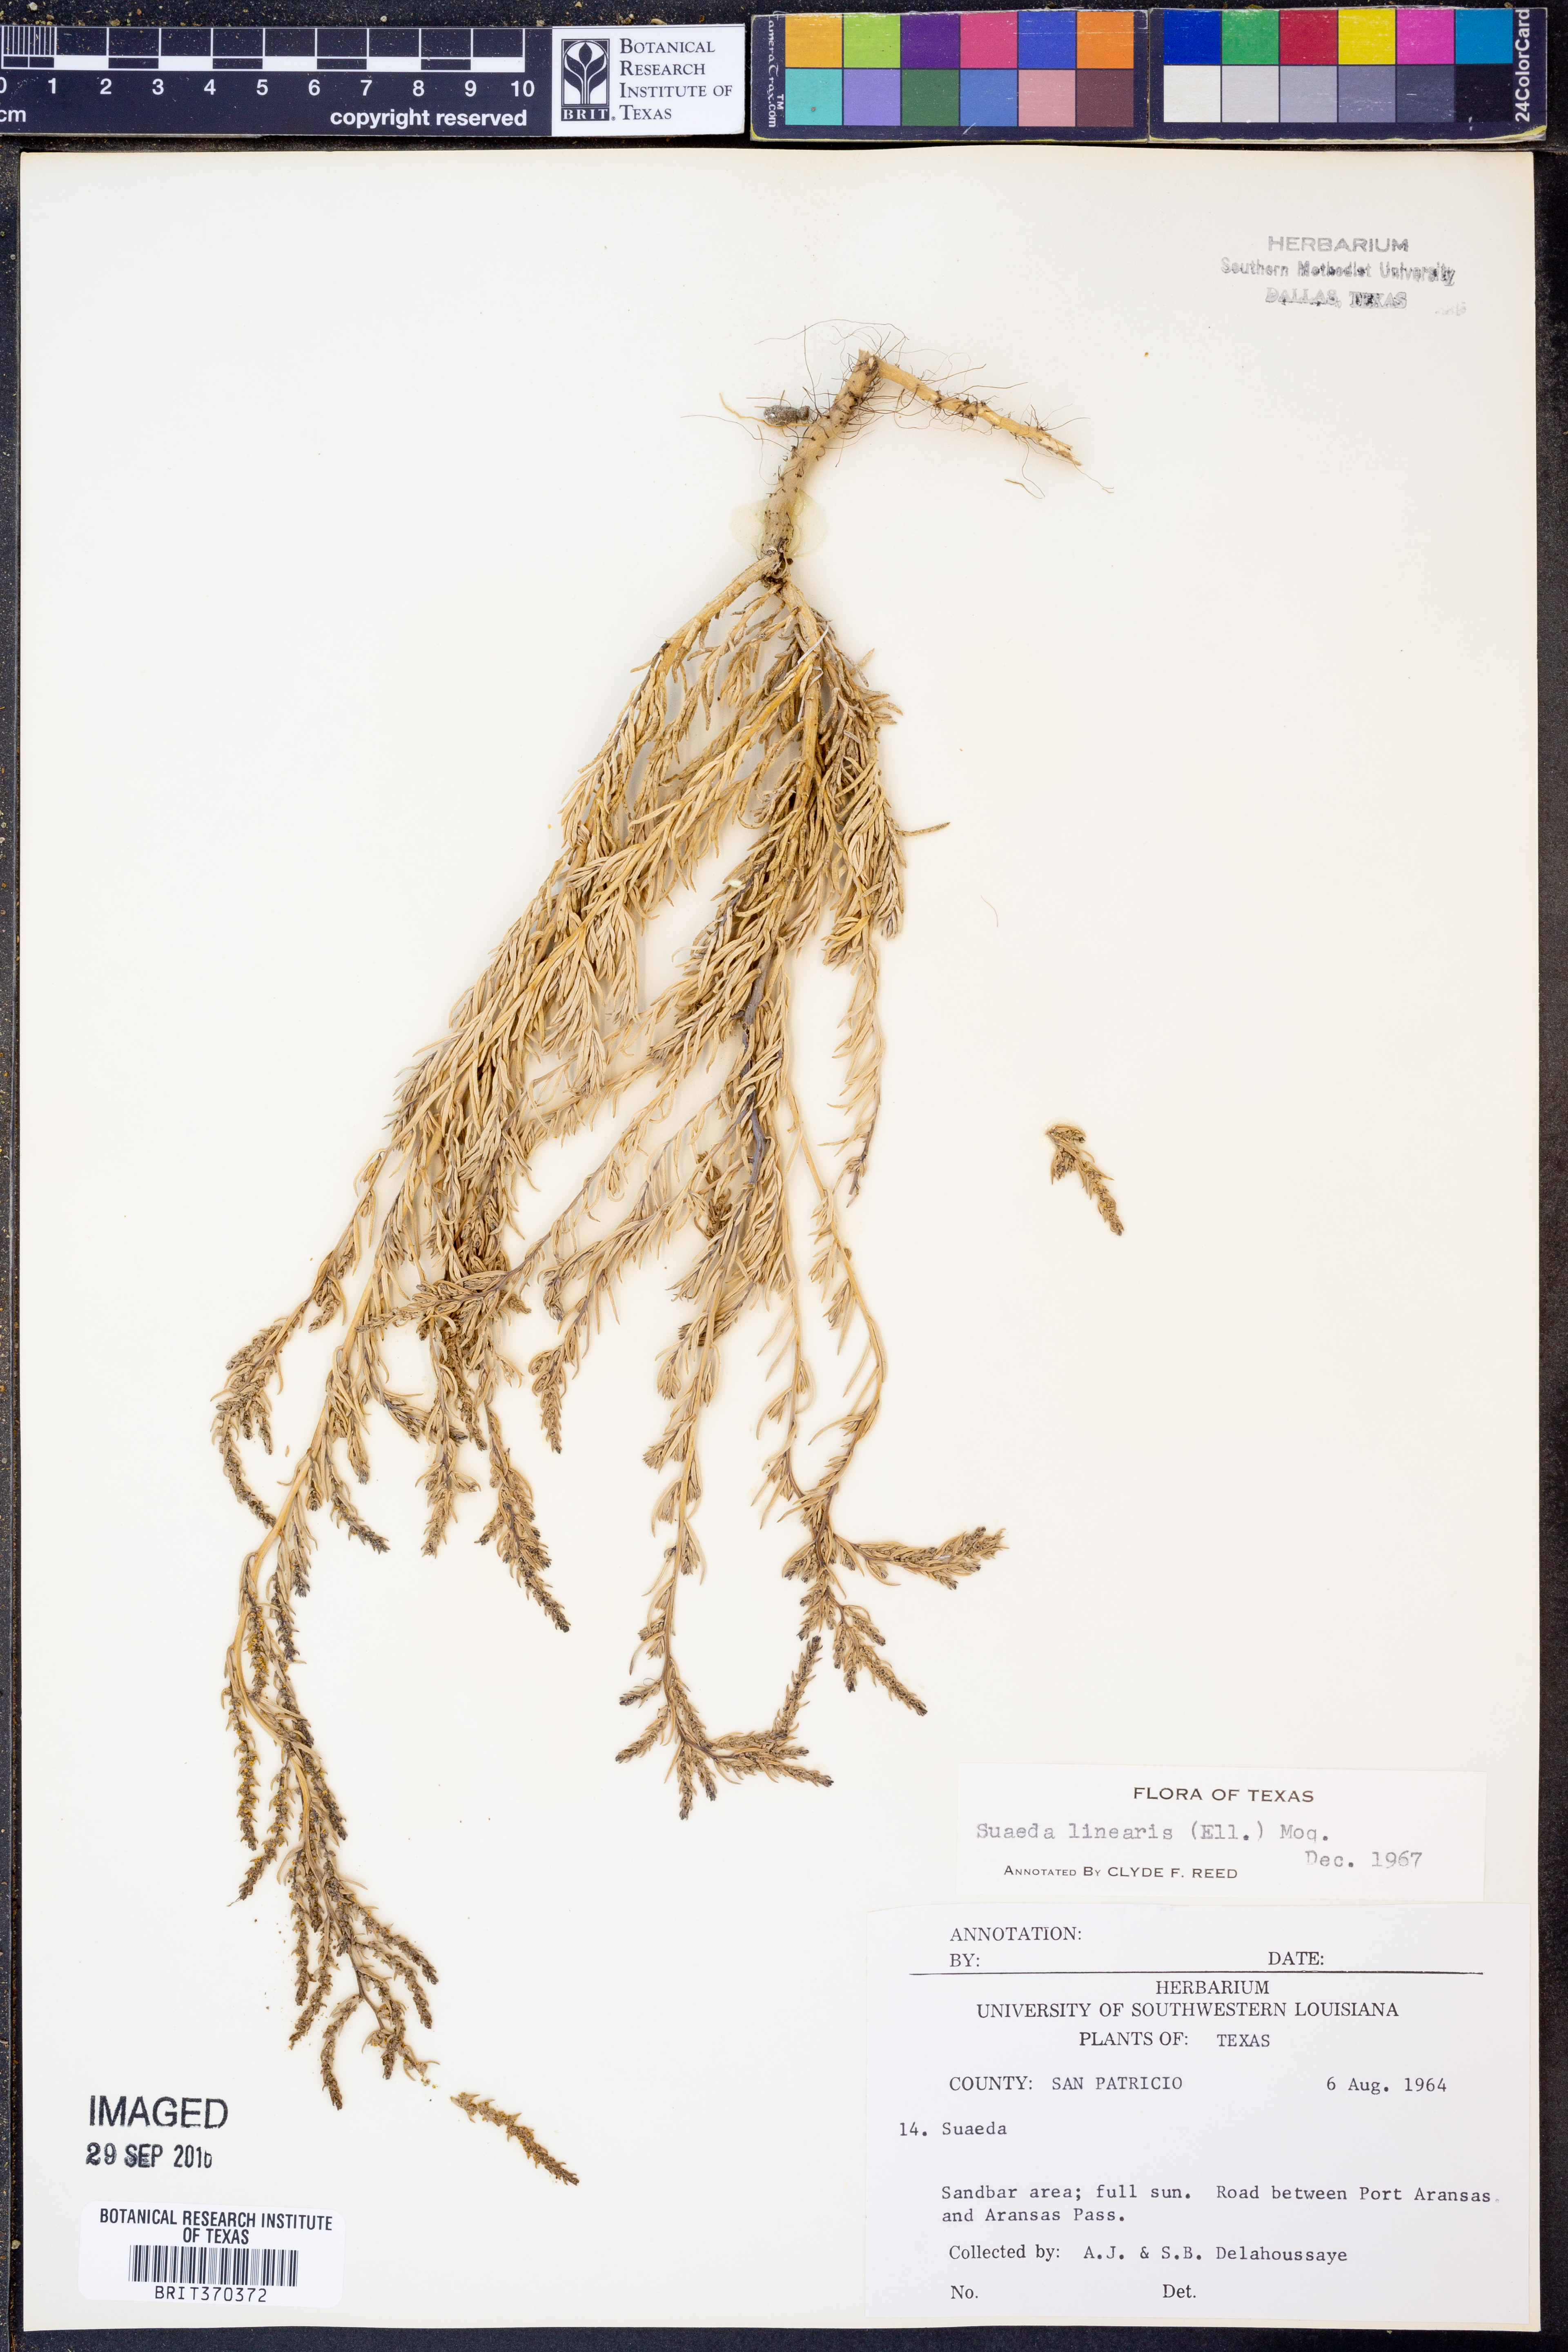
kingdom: Plantae
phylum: Tracheophyta
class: Magnoliopsida
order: Caryophyllales
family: Amaranthaceae
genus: Suaeda
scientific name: Suaeda linearis
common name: Annual seepweed
